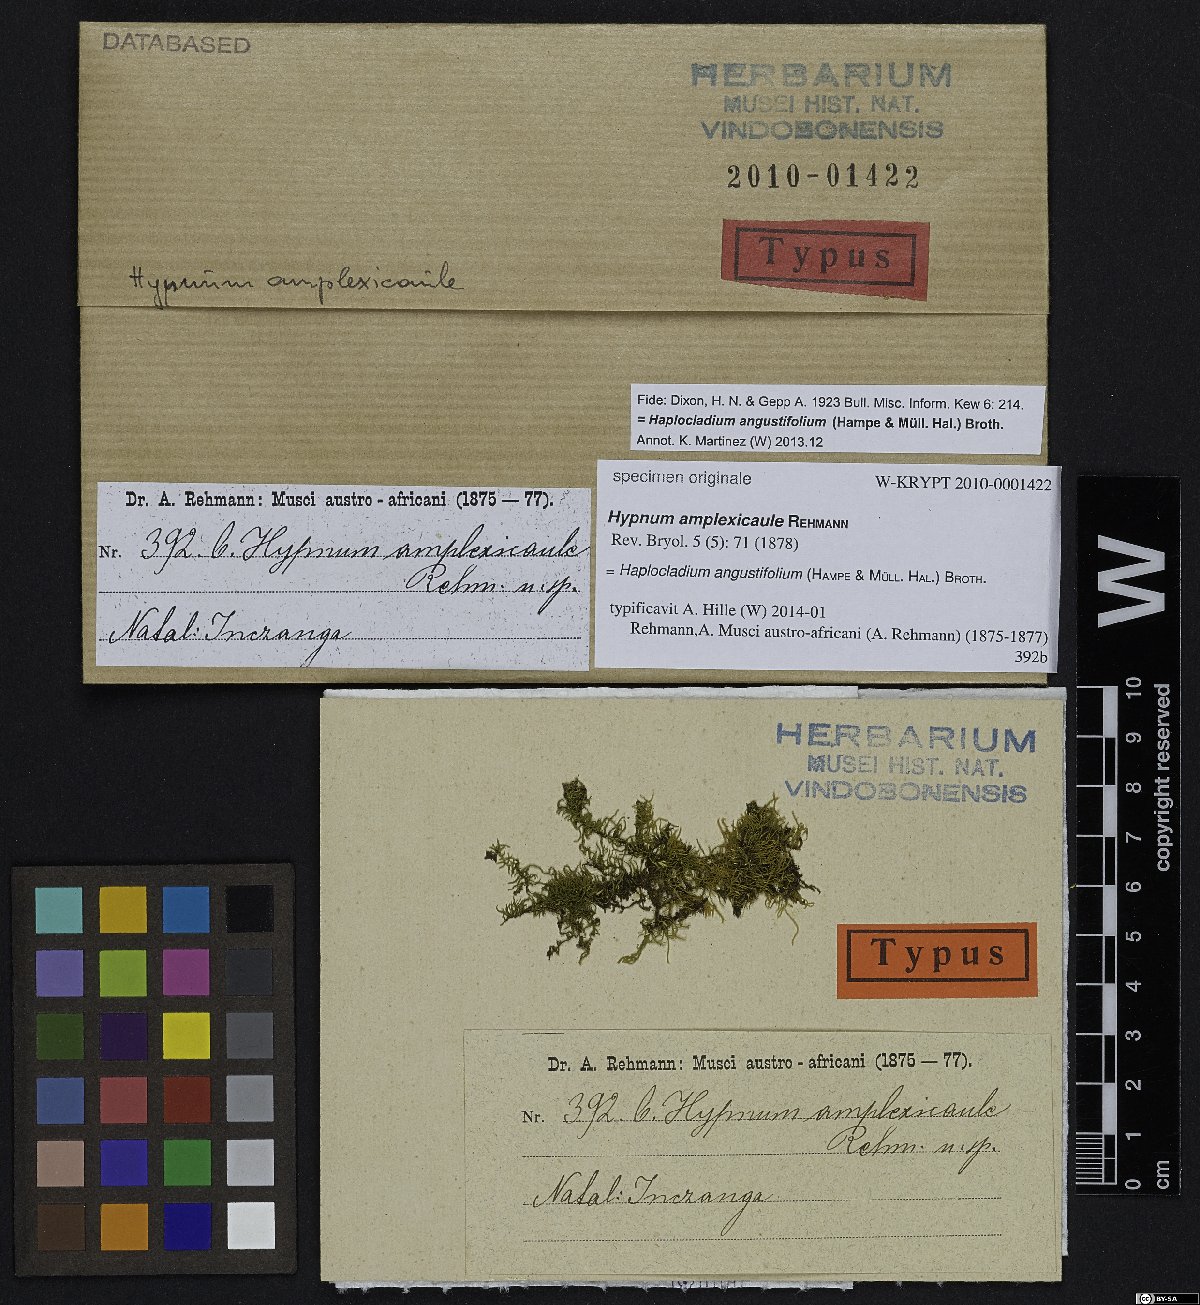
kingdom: Plantae
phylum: Bryophyta
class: Bryopsida
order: Hypnales
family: Hypnaceae
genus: Hypnum
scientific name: Hypnum
